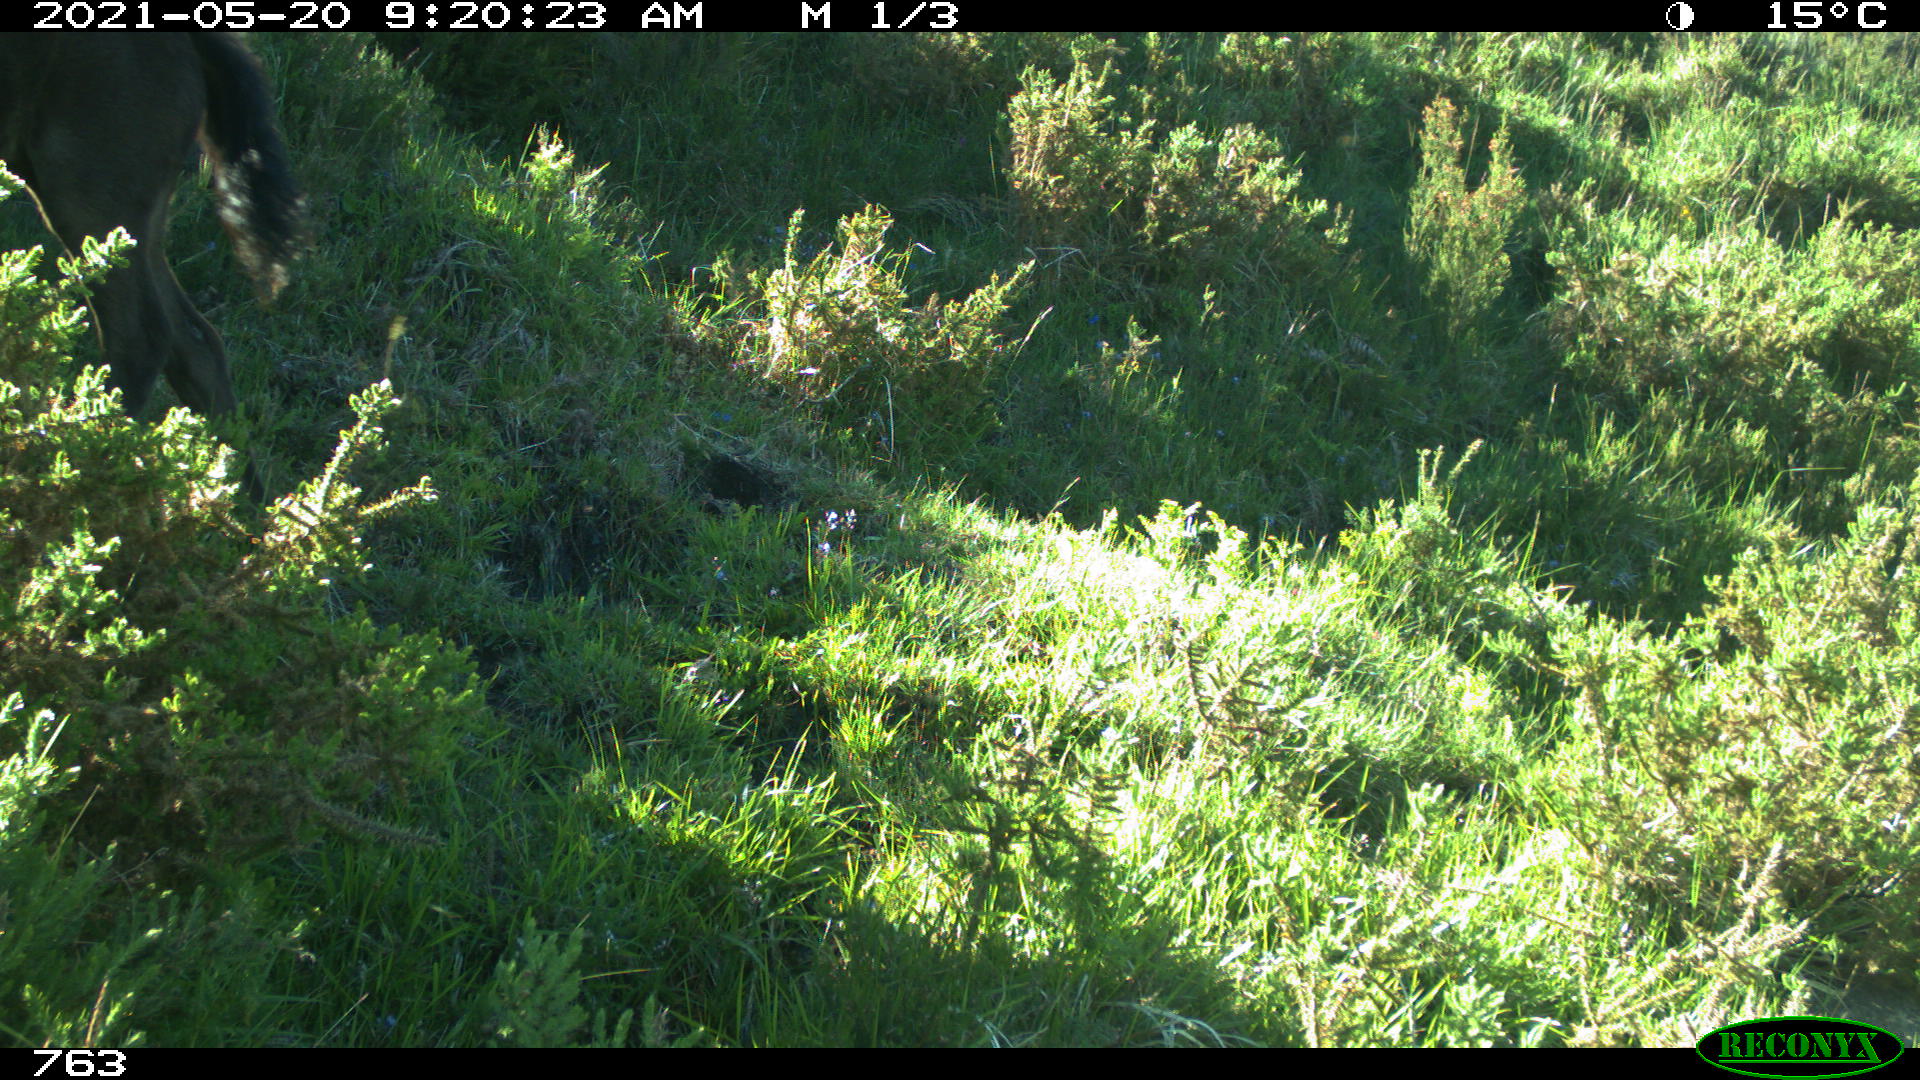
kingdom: Animalia
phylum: Chordata
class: Mammalia
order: Perissodactyla
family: Equidae
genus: Equus
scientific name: Equus caballus
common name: Horse
